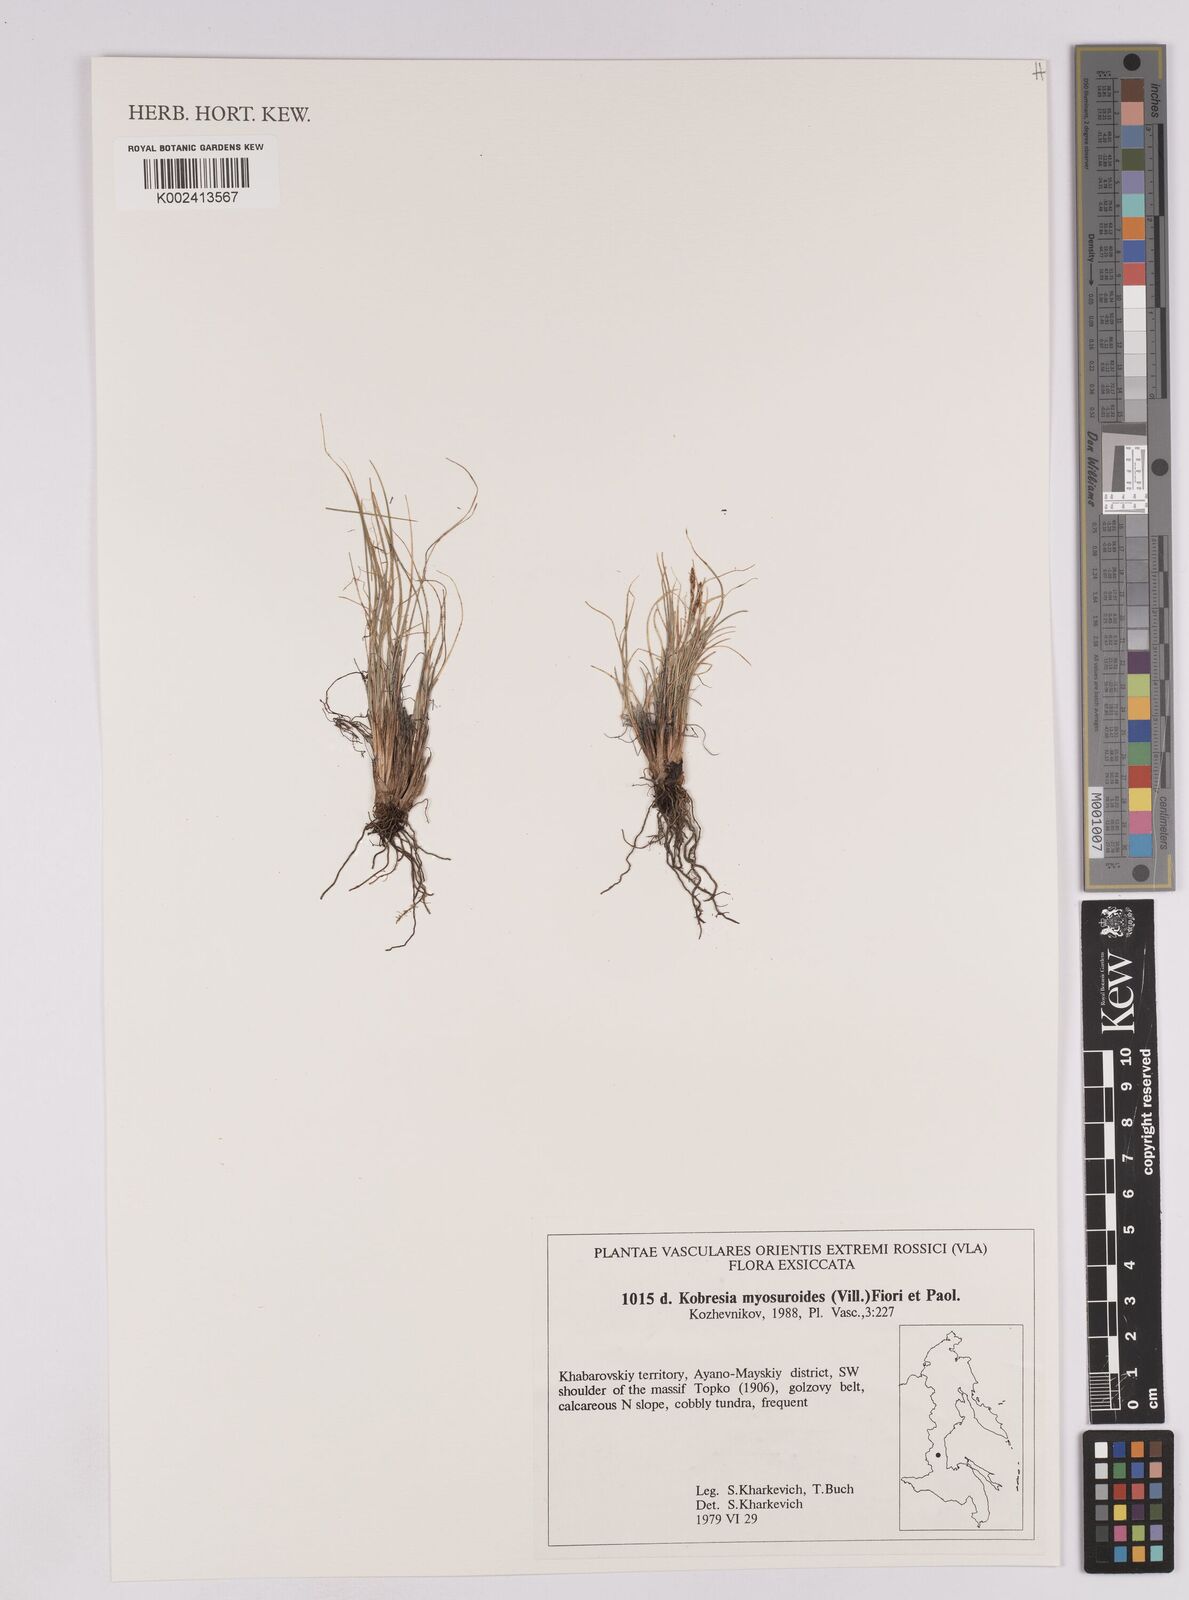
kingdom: Plantae
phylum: Tracheophyta
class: Liliopsida
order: Poales
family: Cyperaceae
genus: Carex
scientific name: Carex myosuroides
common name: Bellard's bog sedge
